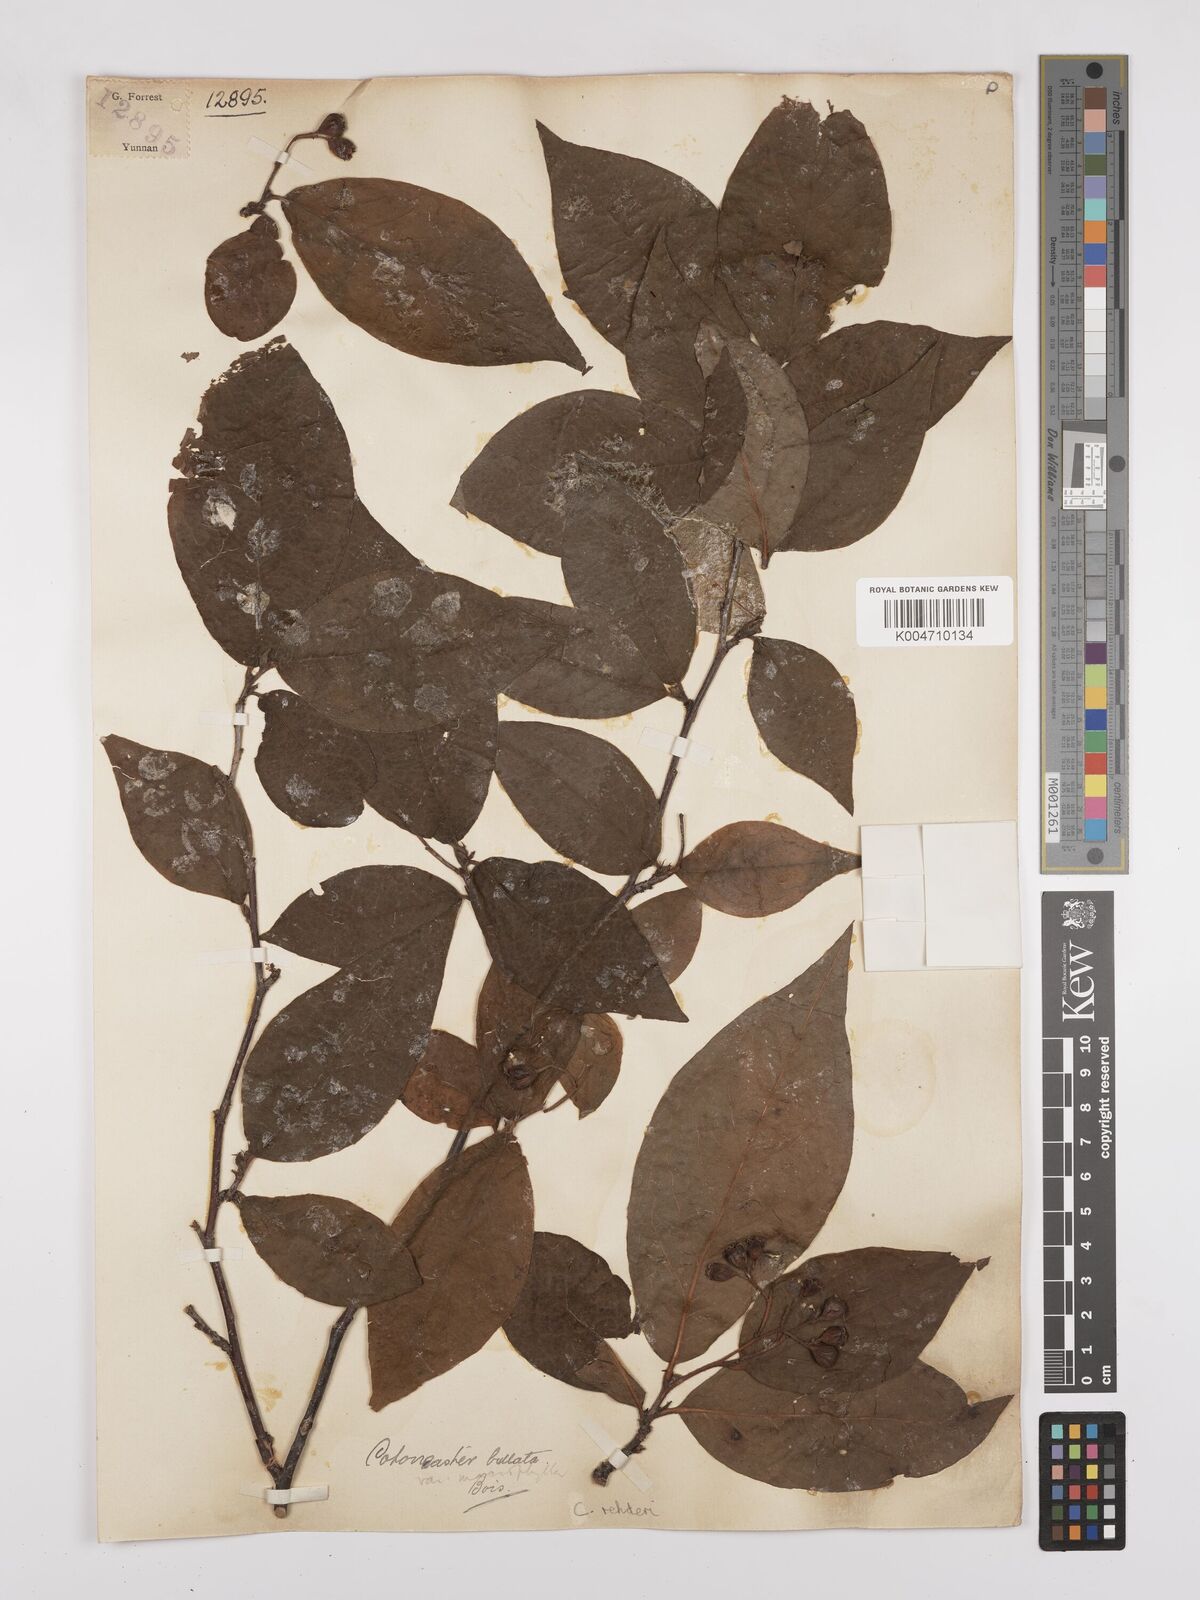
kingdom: Plantae
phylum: Tracheophyta
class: Magnoliopsida
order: Rosales
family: Rosaceae
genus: Cotoneaster
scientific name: Cotoneaster bullatus
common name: Hollyberry cotoneaster
